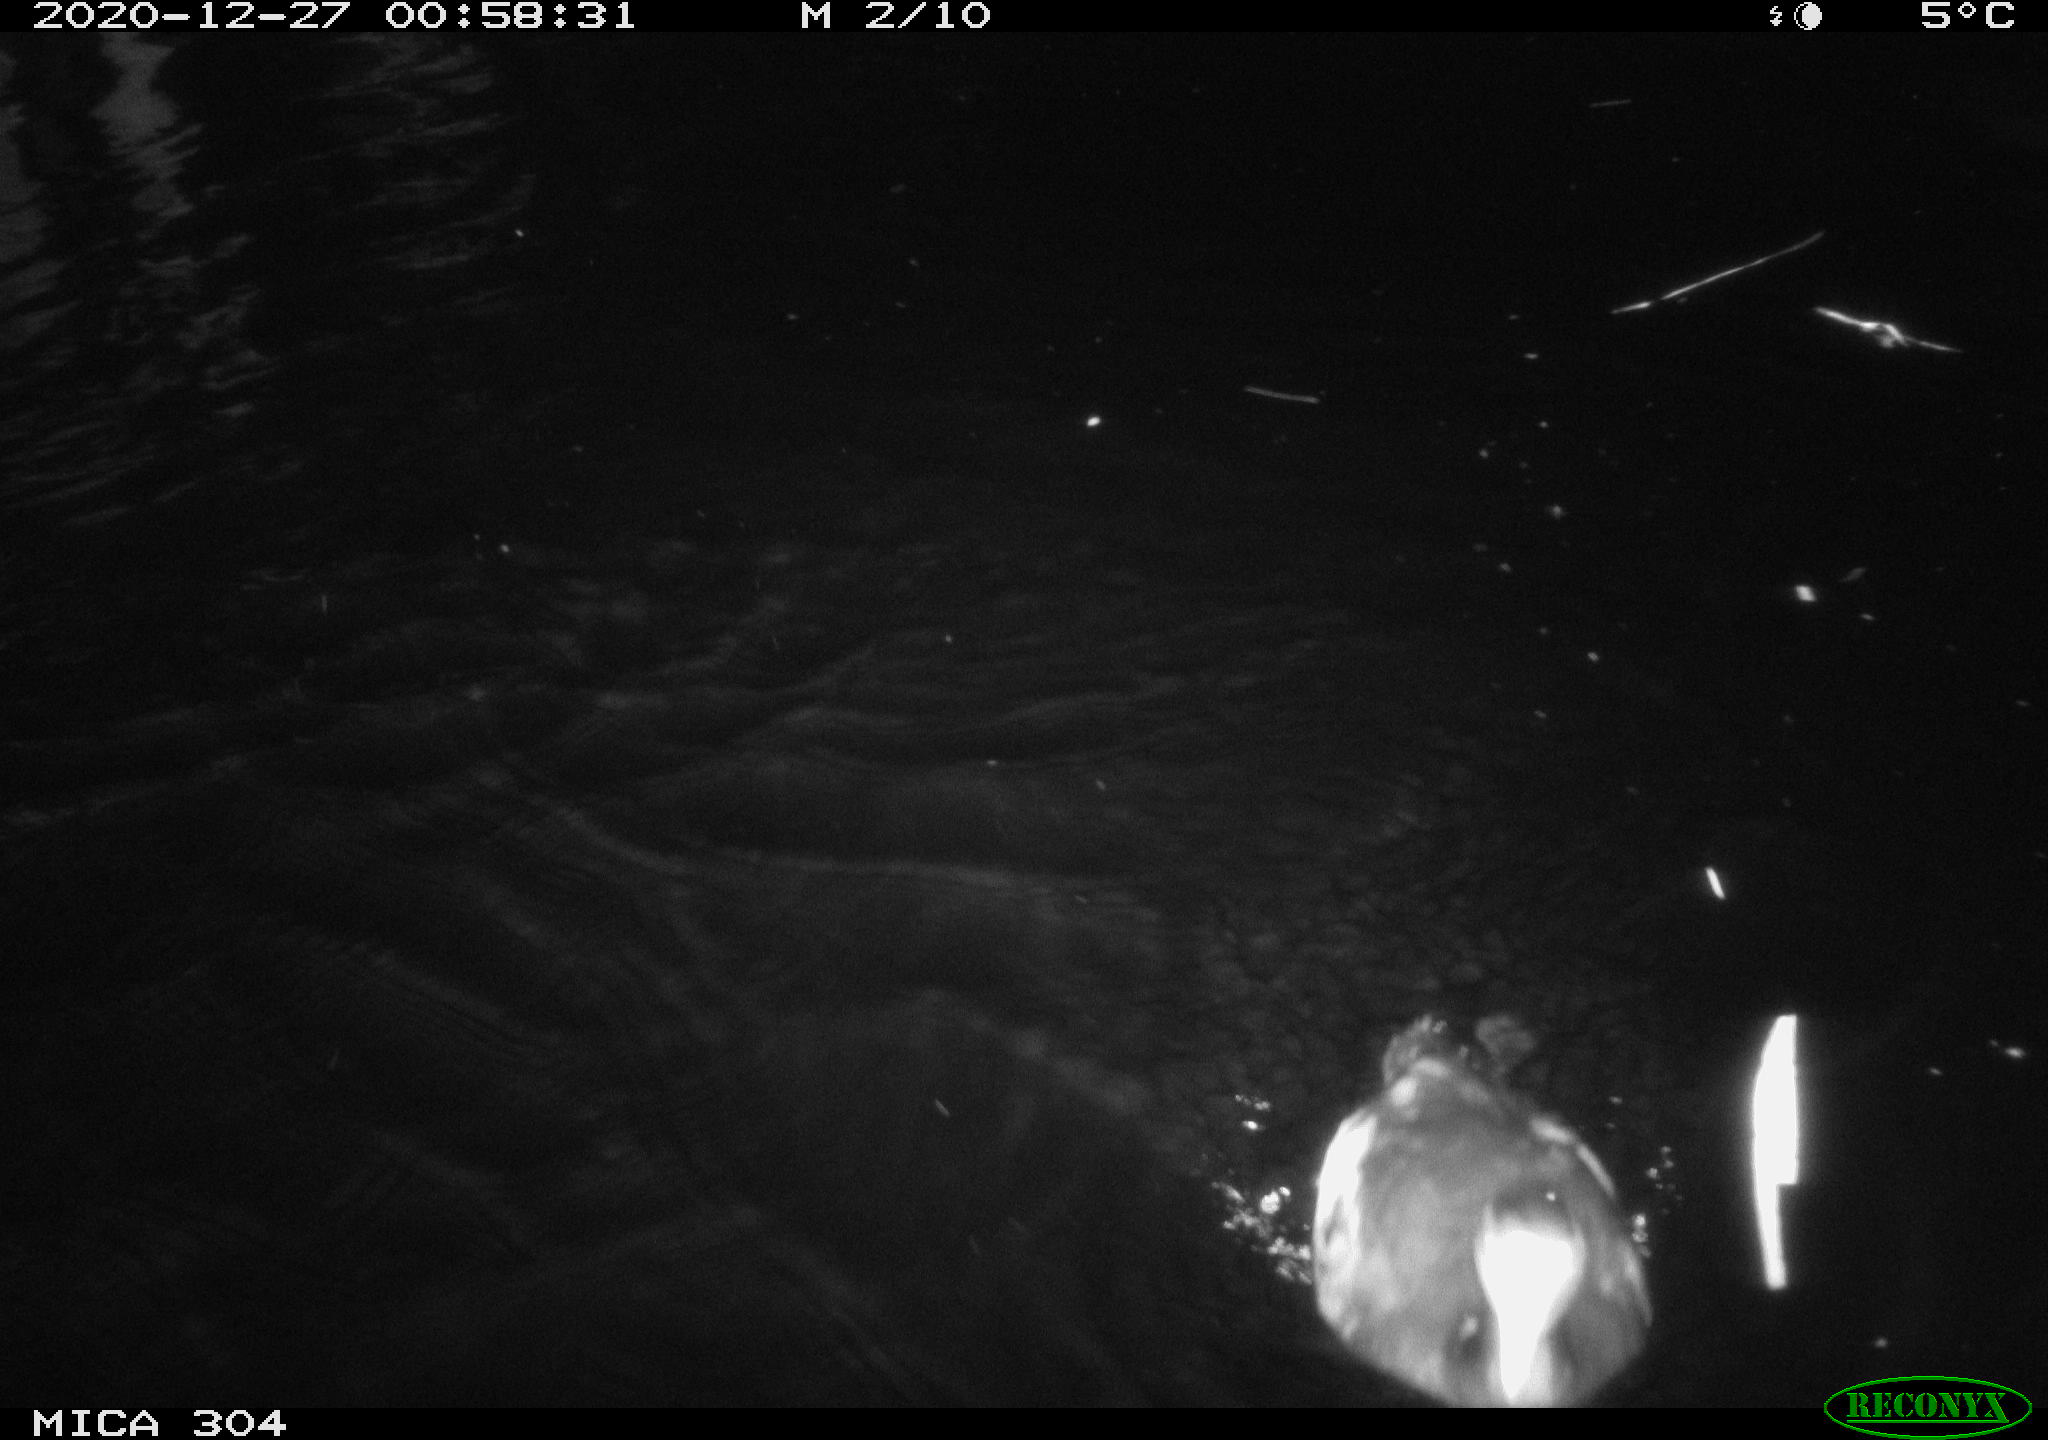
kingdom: Animalia
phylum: Chordata
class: Aves
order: Gruiformes
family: Rallidae
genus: Fulica
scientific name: Fulica atra
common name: Eurasian coot
